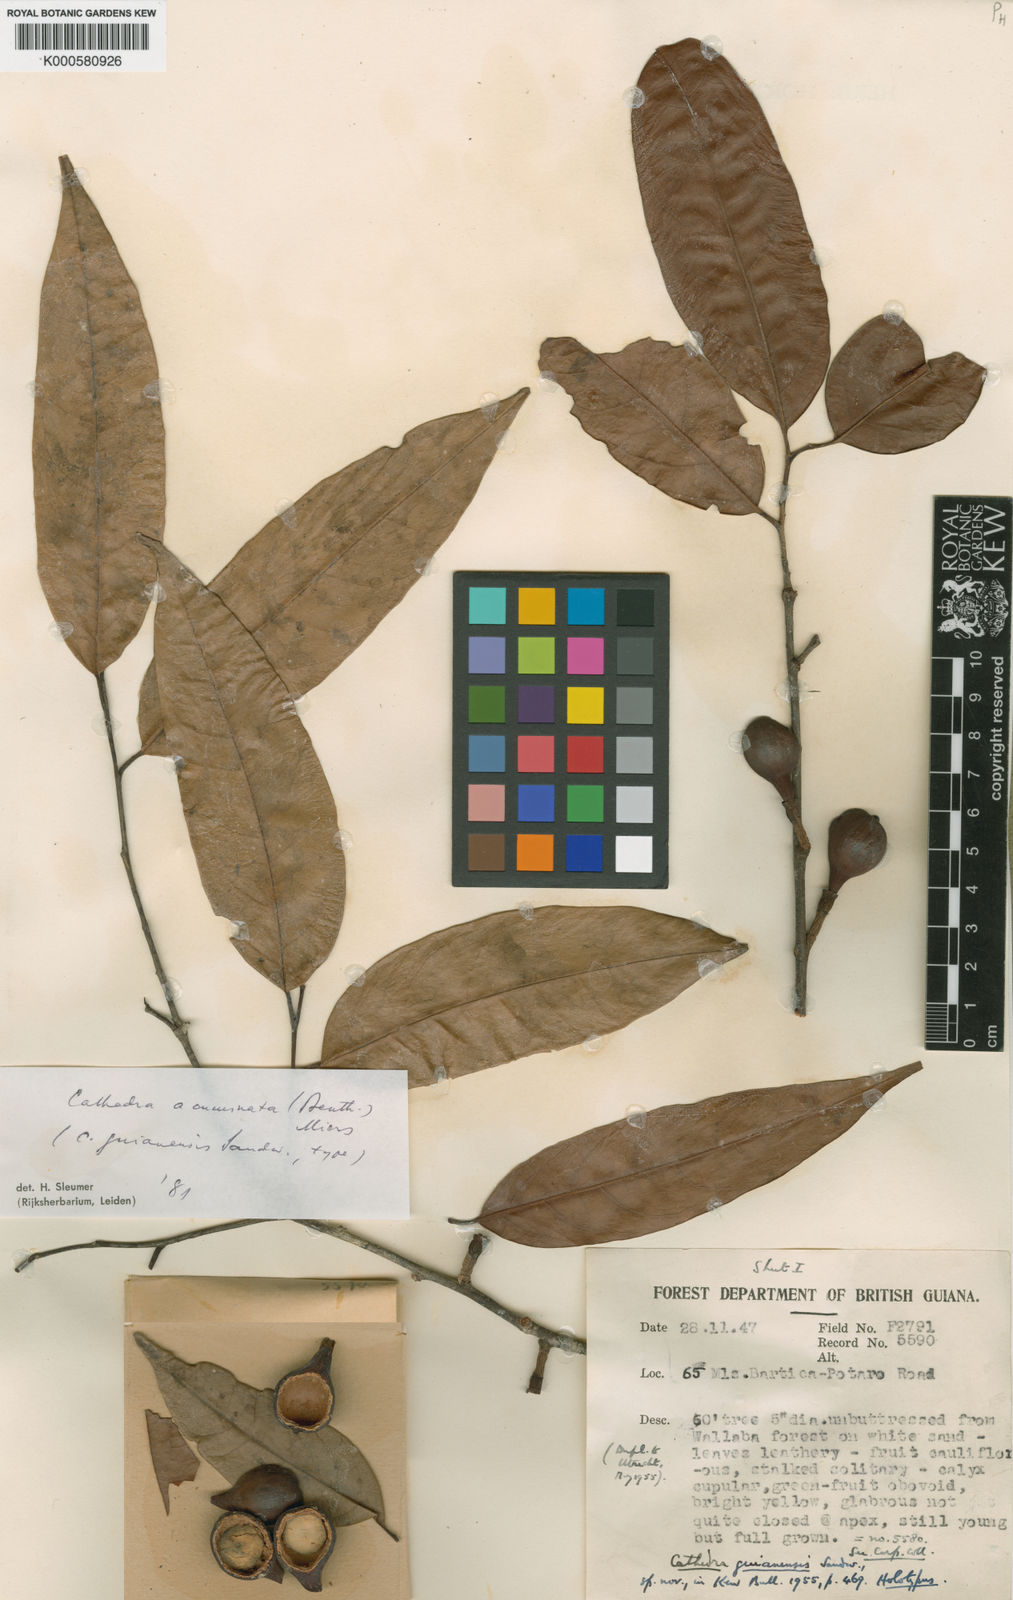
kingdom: Plantae
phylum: Tracheophyta
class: Magnoliopsida
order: Santalales
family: Aptandraceae
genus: Cathedra
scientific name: Cathedra acuminata
